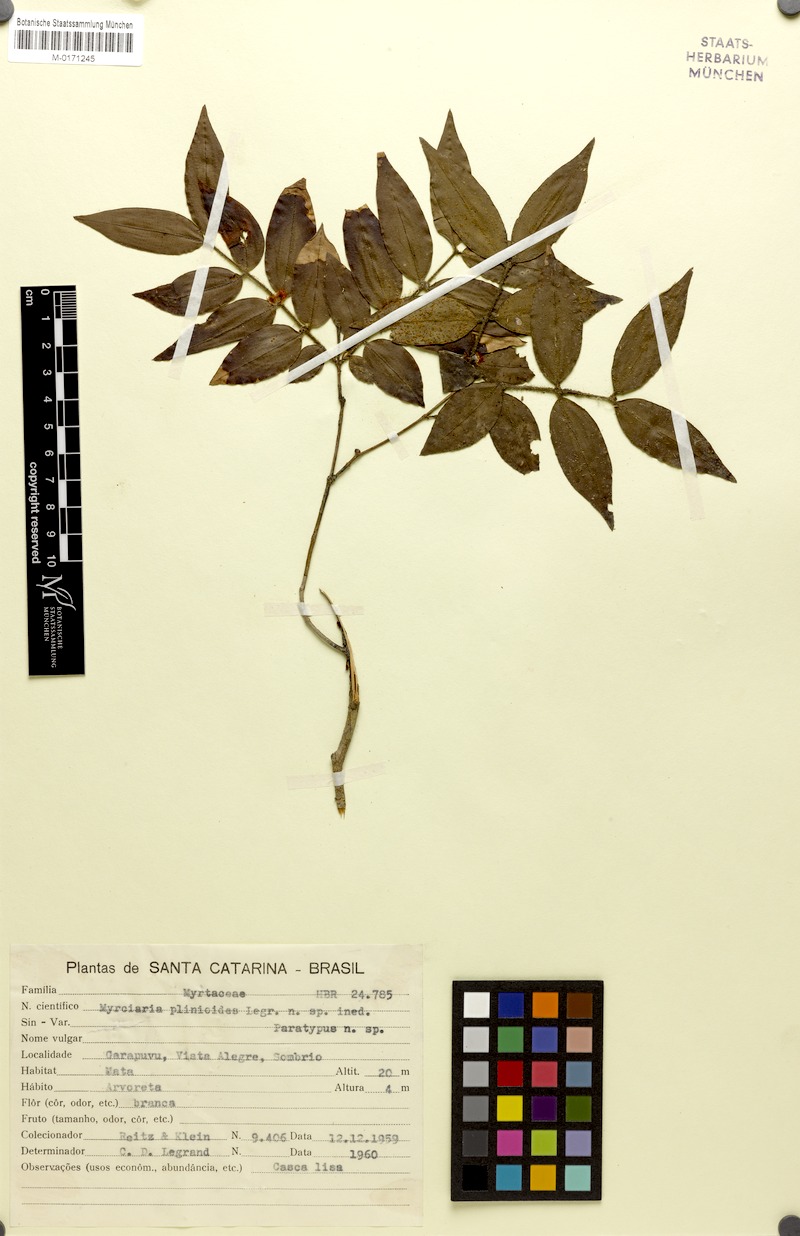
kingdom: Plantae
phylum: Tracheophyta
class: Magnoliopsida
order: Myrtales
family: Myrtaceae
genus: Myrciaria
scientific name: Myrciaria plinioides
